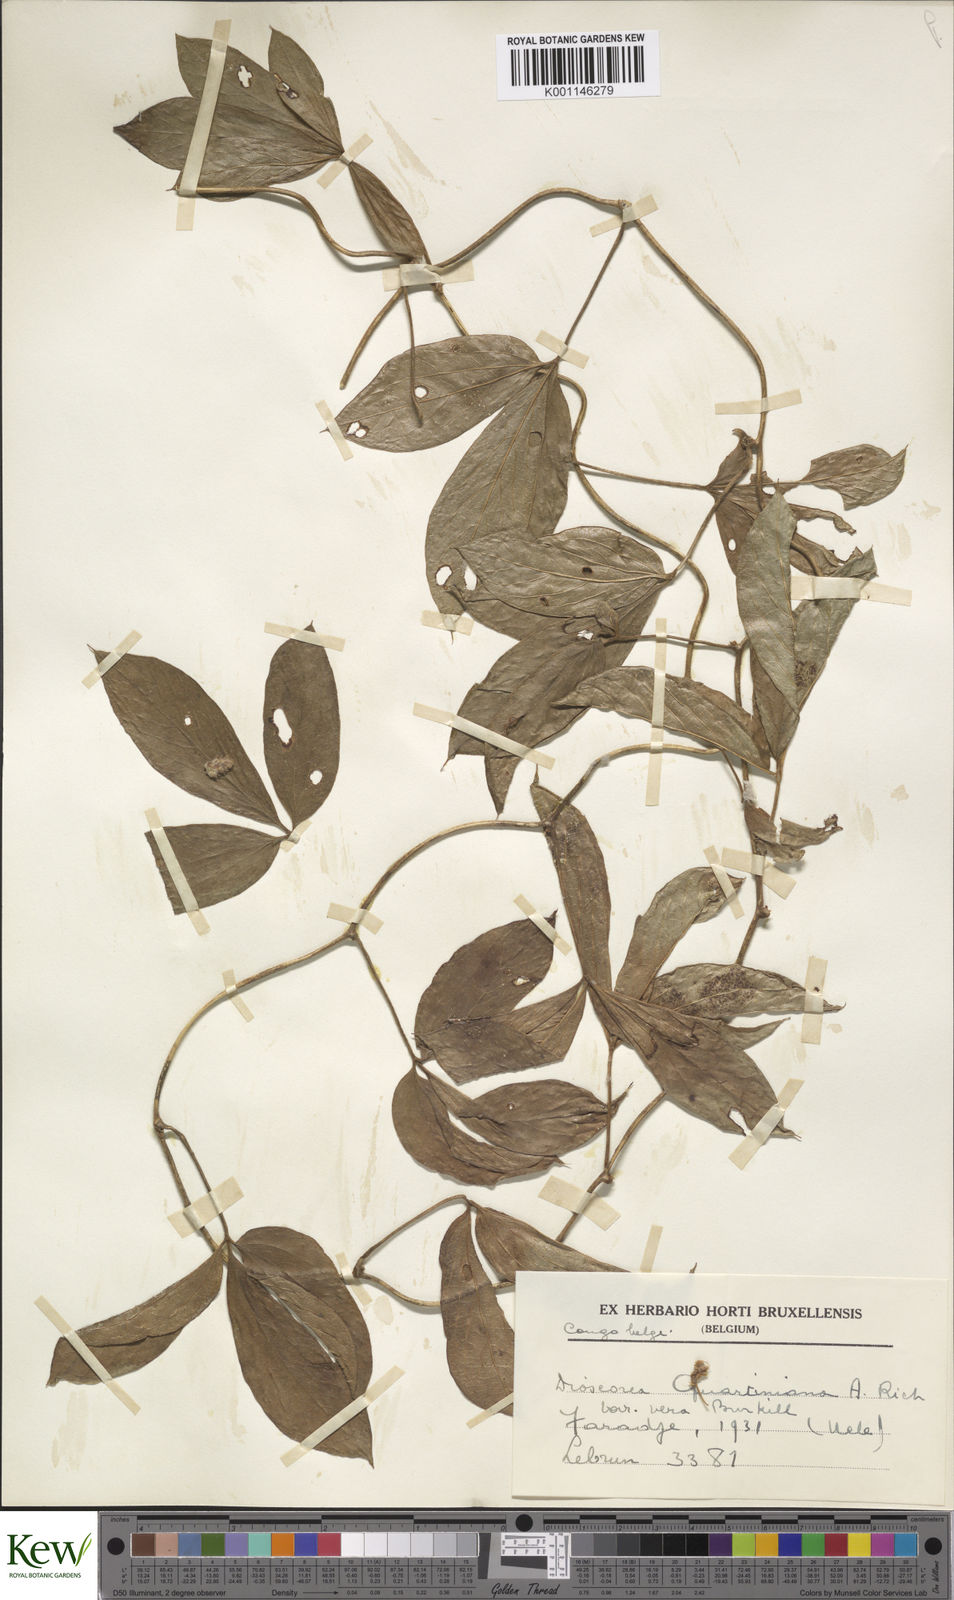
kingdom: Plantae
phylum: Tracheophyta
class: Liliopsida
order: Dioscoreales
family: Dioscoreaceae
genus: Dioscorea
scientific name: Dioscorea quartiniana
